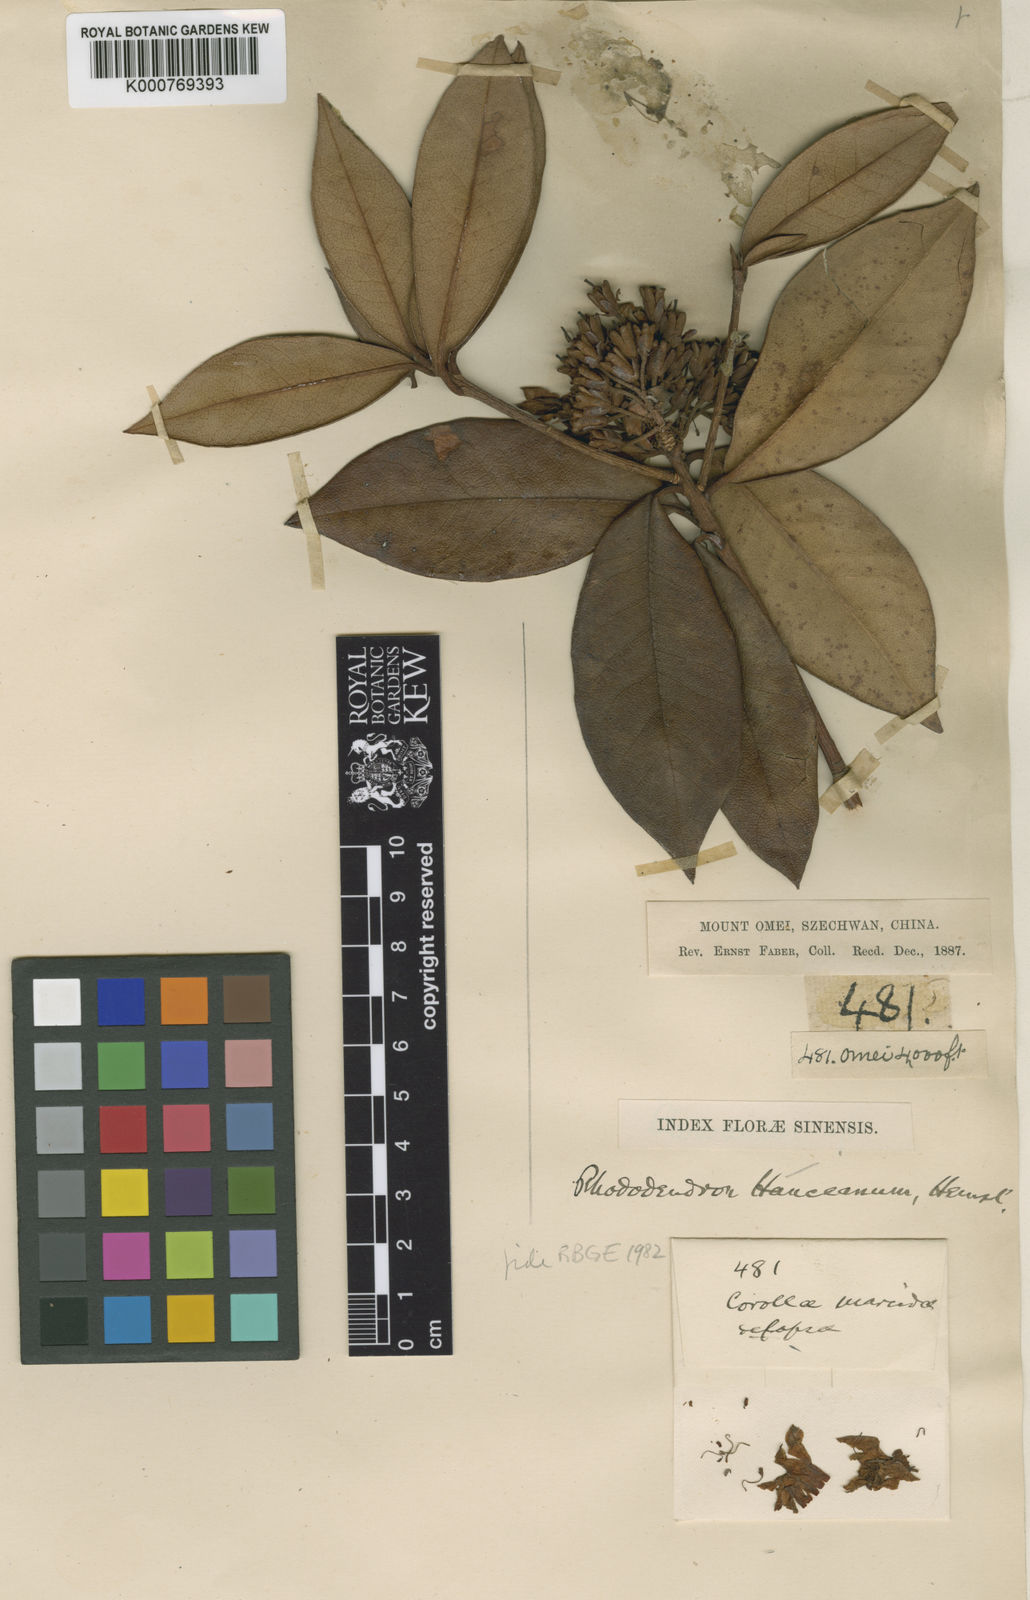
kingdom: Plantae
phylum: Tracheophyta
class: Magnoliopsida
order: Ericales
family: Ericaceae
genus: Rhododendron
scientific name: Rhododendron hanceanum
